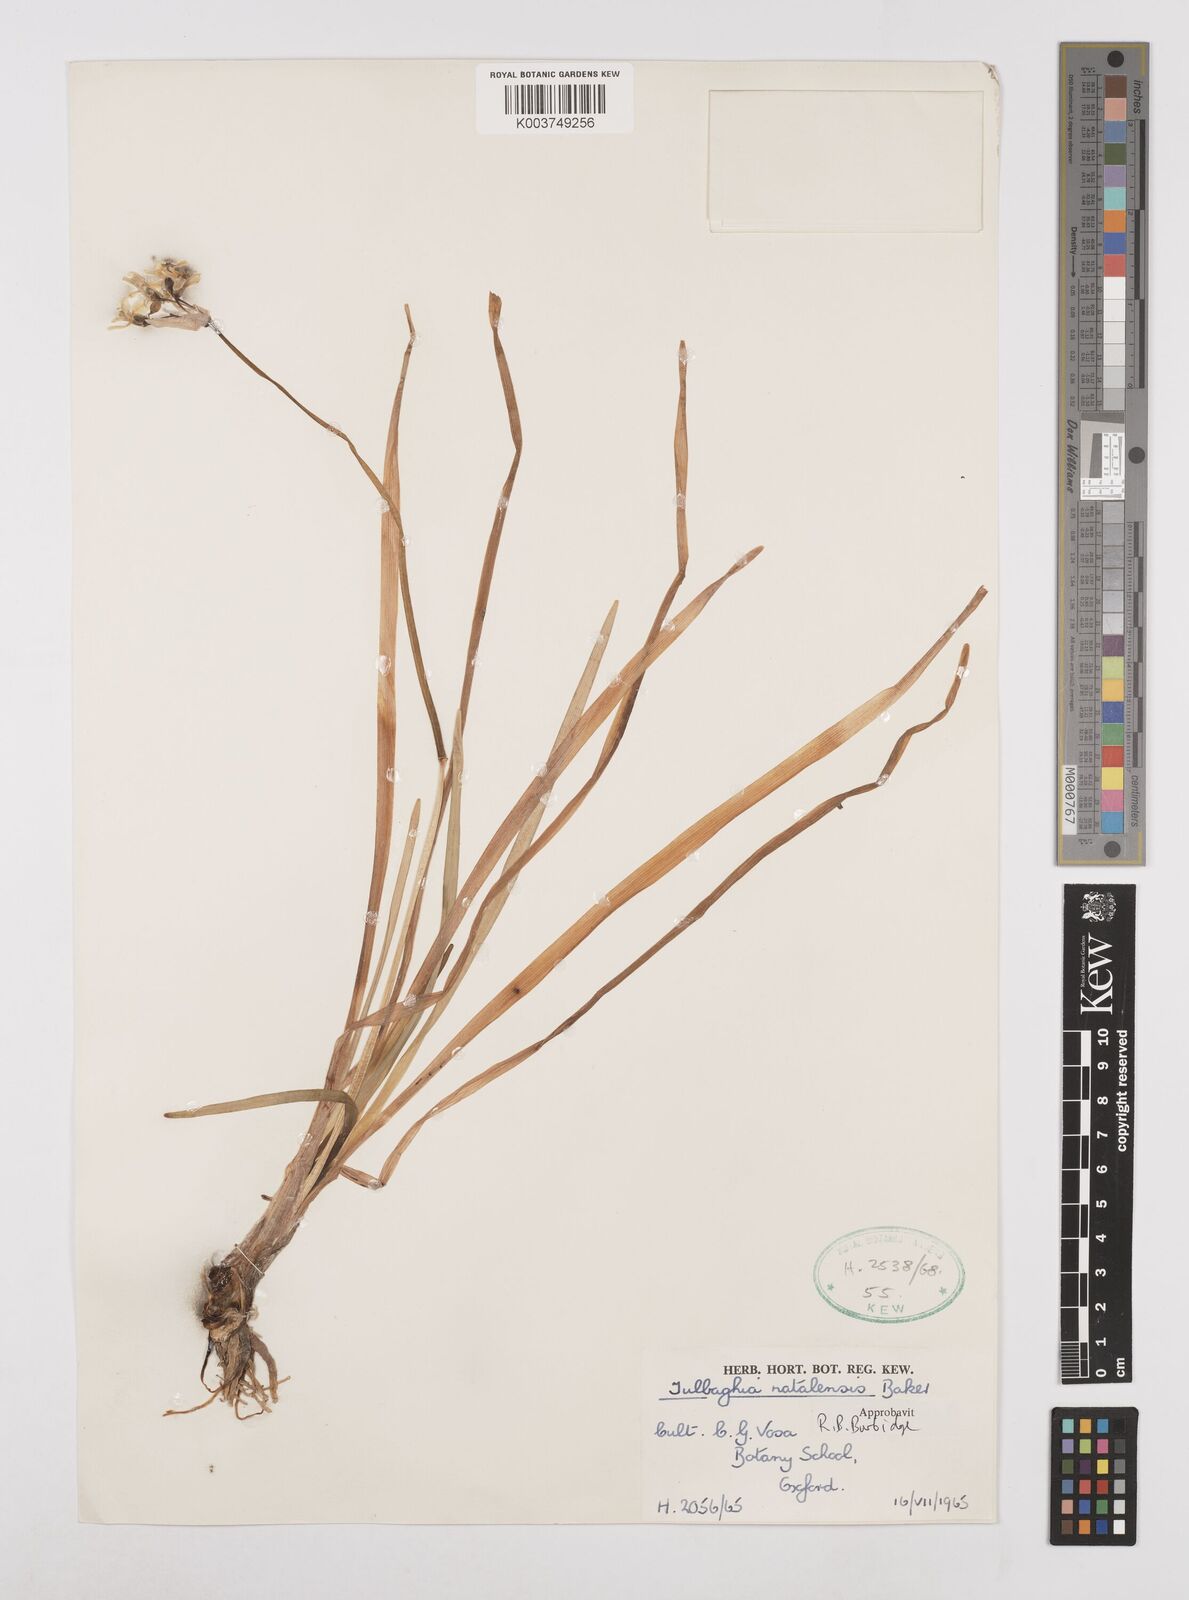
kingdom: Plantae
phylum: Tracheophyta
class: Liliopsida
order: Asparagales
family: Amaryllidaceae
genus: Tulbaghia
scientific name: Tulbaghia natalensis
